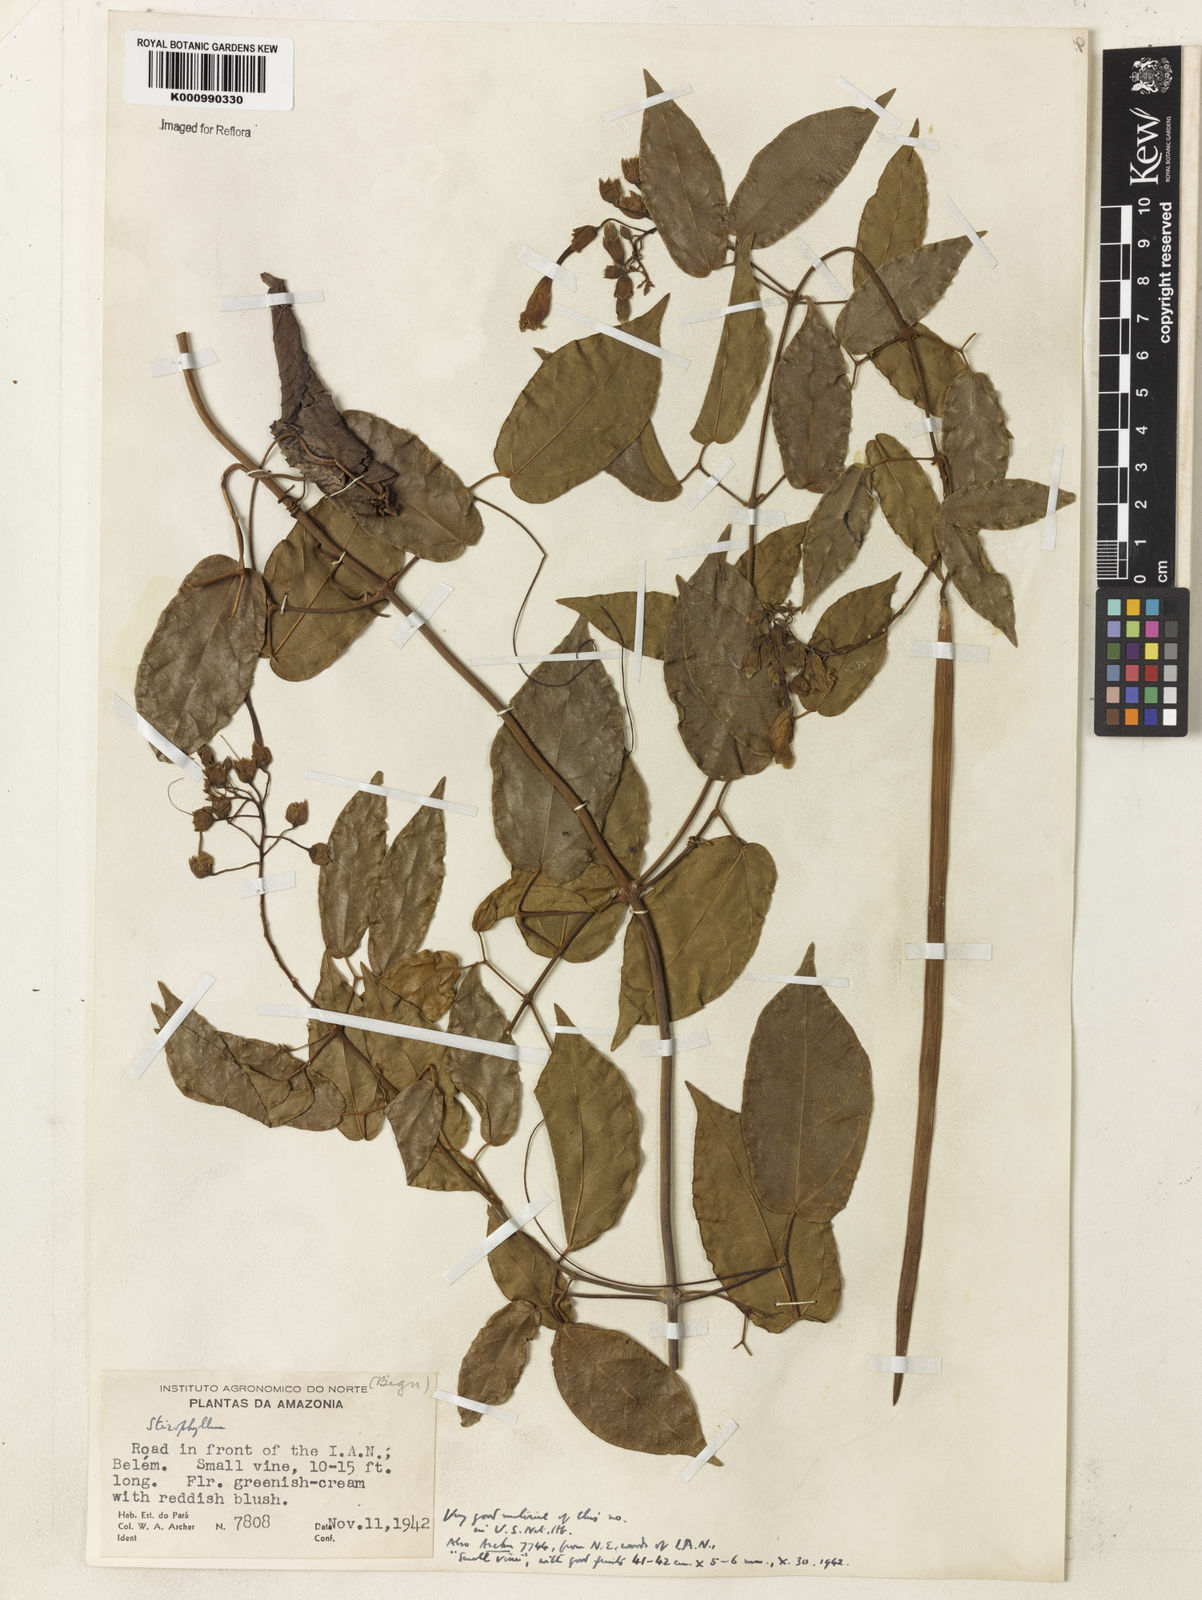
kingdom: Plantae
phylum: Tracheophyta
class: Magnoliopsida
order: Lamiales
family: Bignoniaceae
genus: Stizophyllum
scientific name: Stizophyllum
